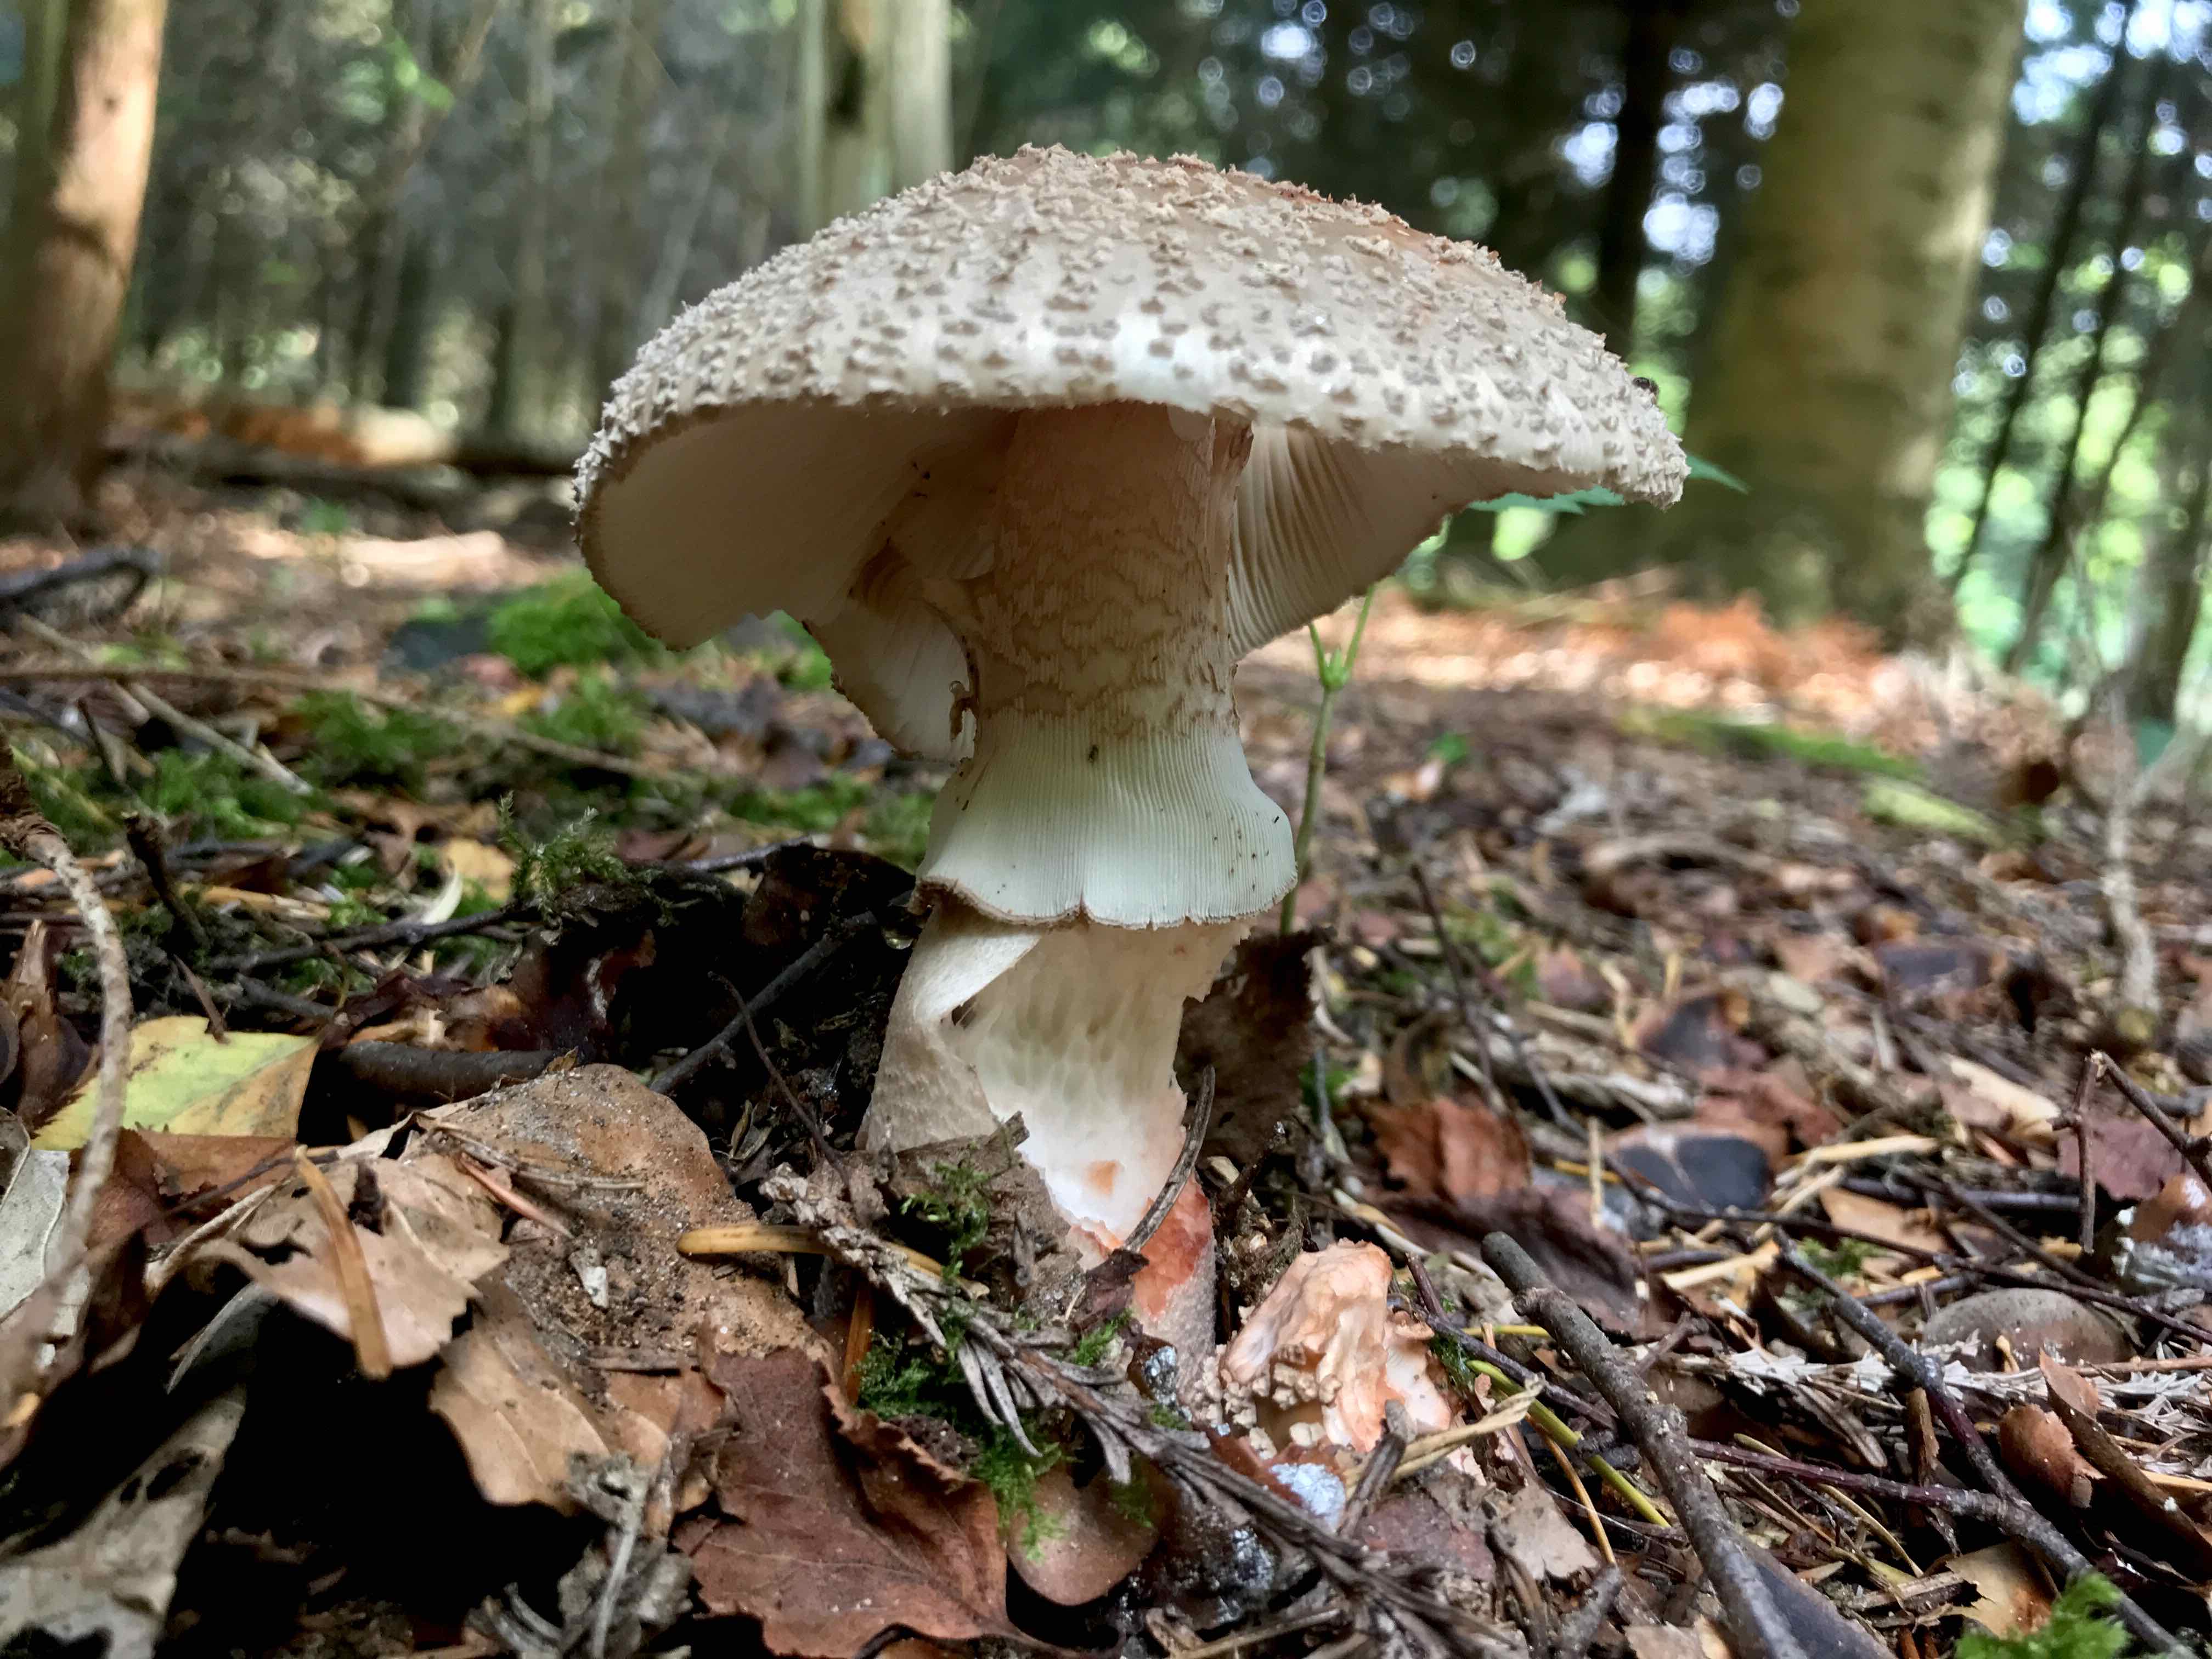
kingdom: Fungi
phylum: Basidiomycota
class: Agaricomycetes
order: Agaricales
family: Amanitaceae
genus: Amanita
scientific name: Amanita rubescens
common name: rødmende fluesvamp
